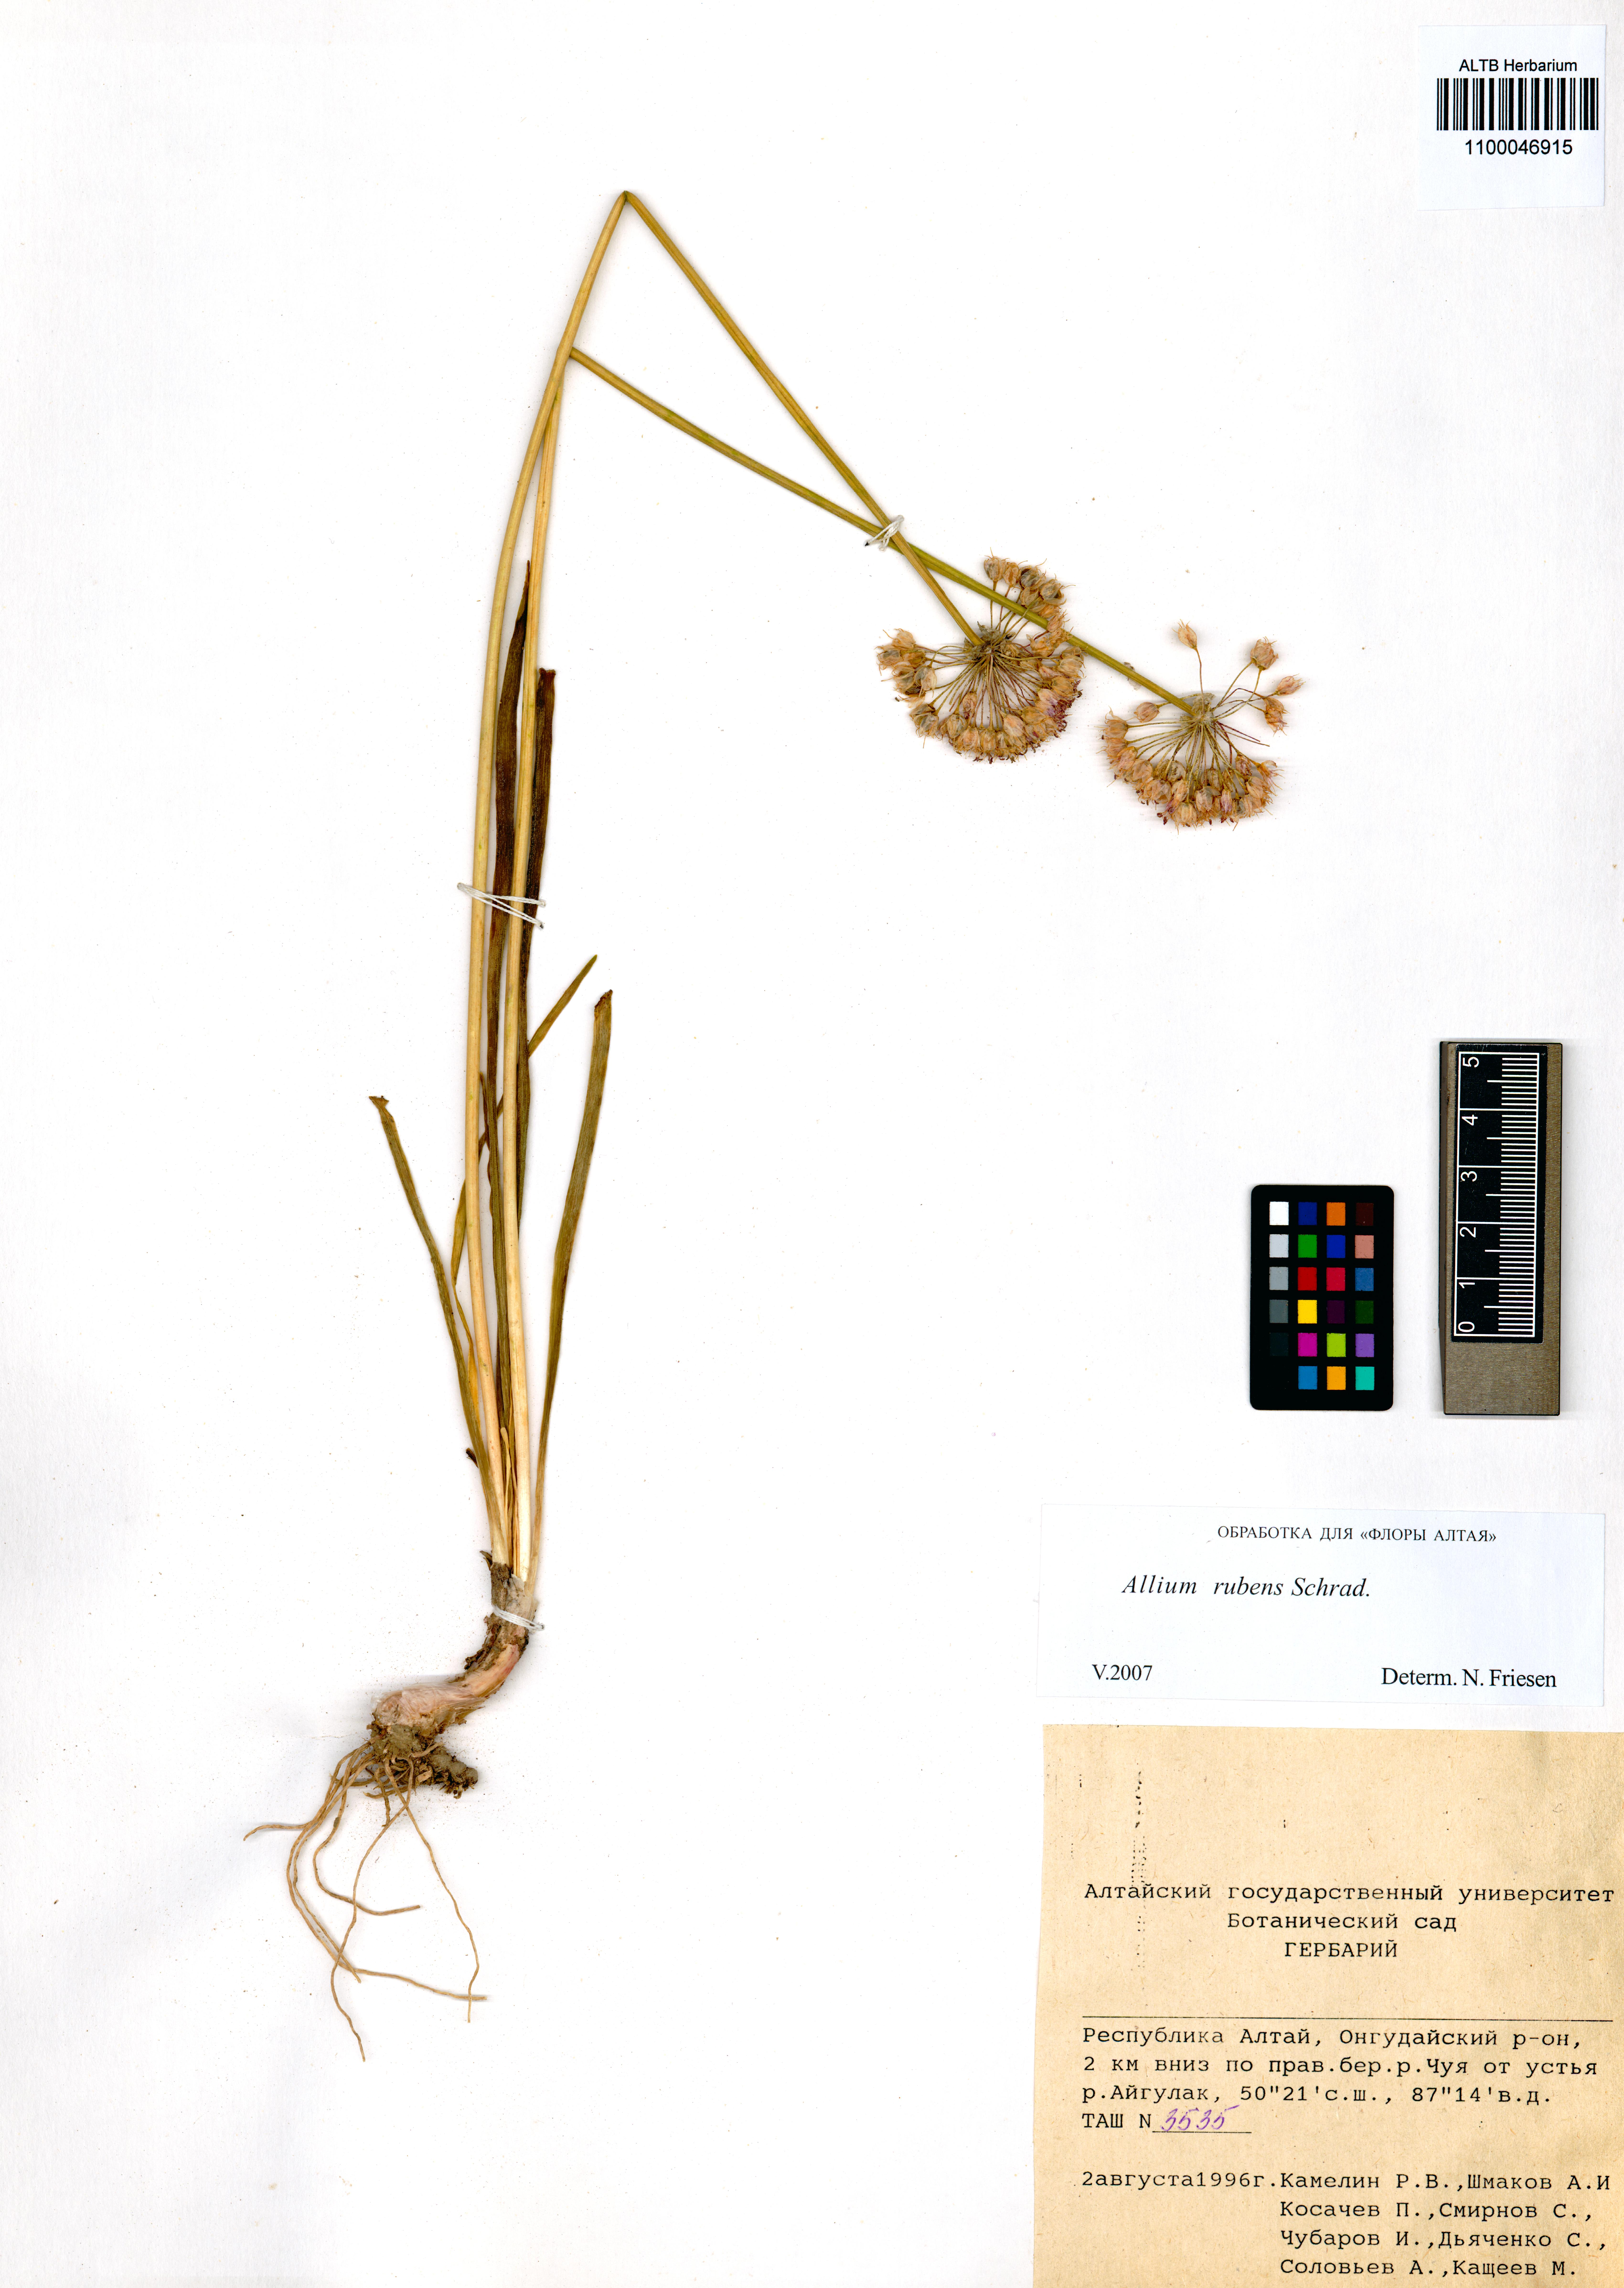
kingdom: Plantae
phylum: Tracheophyta
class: Liliopsida
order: Asparagales
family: Amaryllidaceae
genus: Allium
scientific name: Allium rubens
